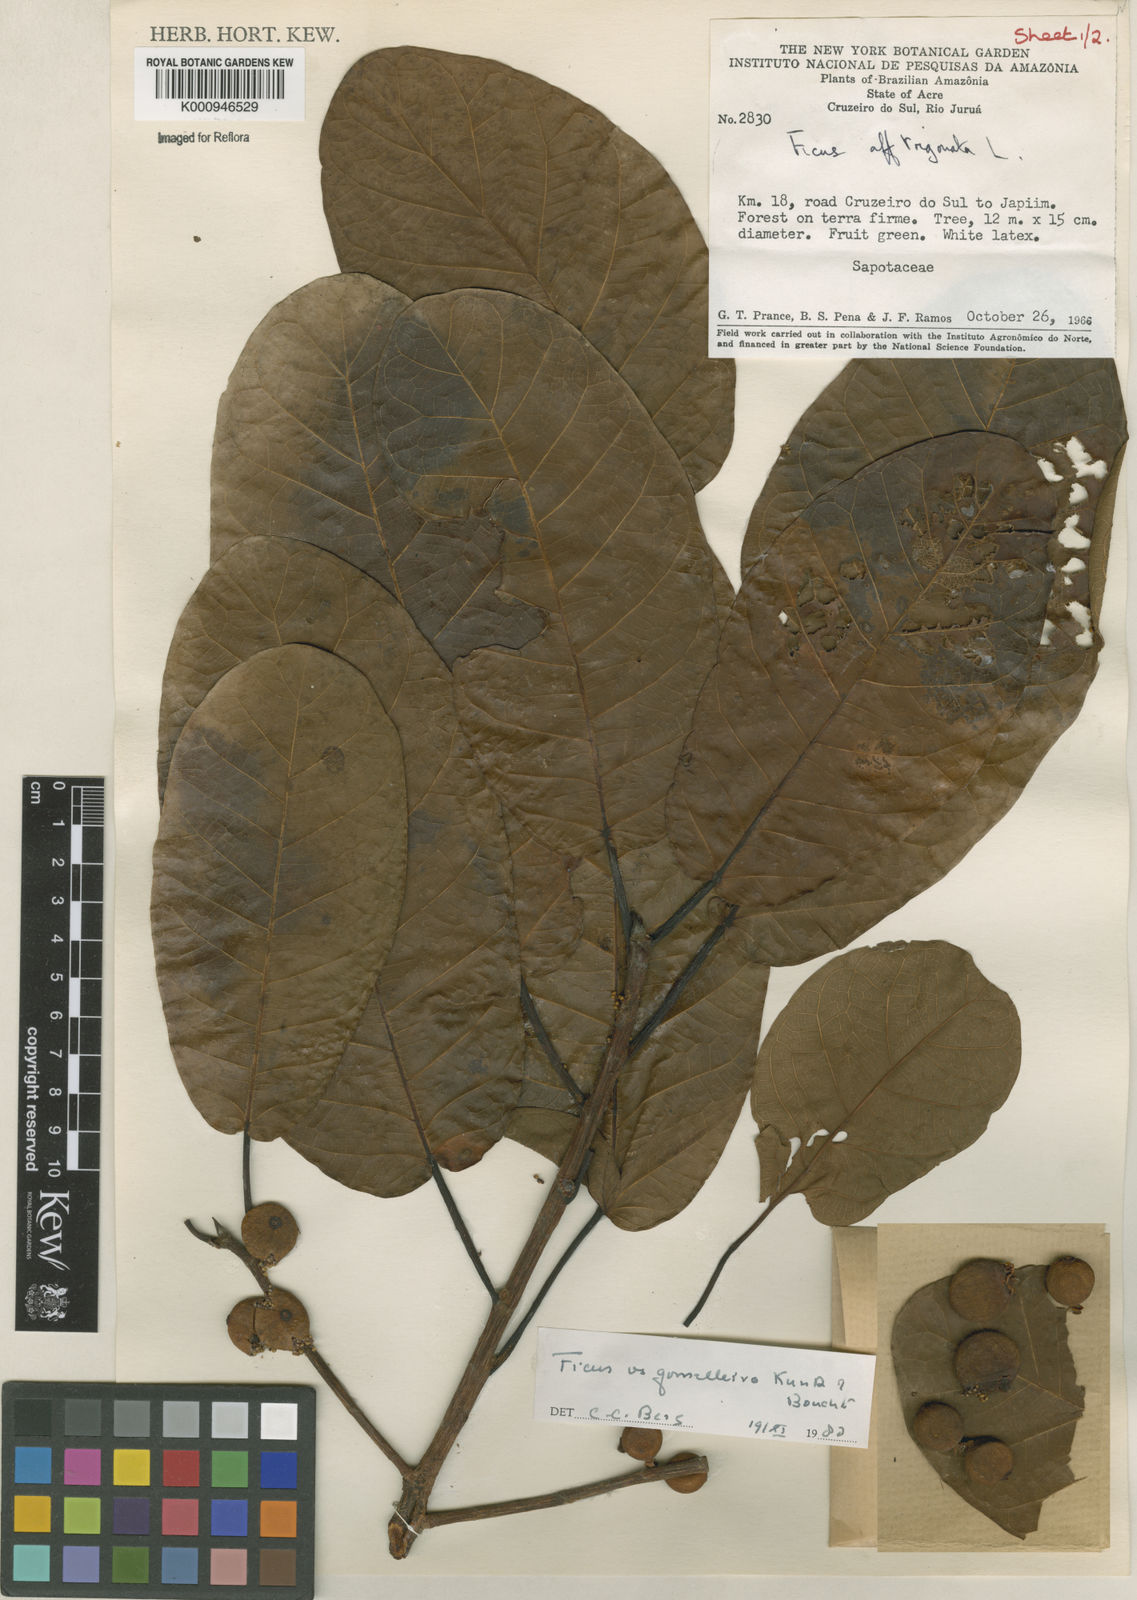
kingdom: Plantae
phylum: Tracheophyta
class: Magnoliopsida
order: Rosales
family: Moraceae
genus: Ficus
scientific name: Ficus gomelleira
